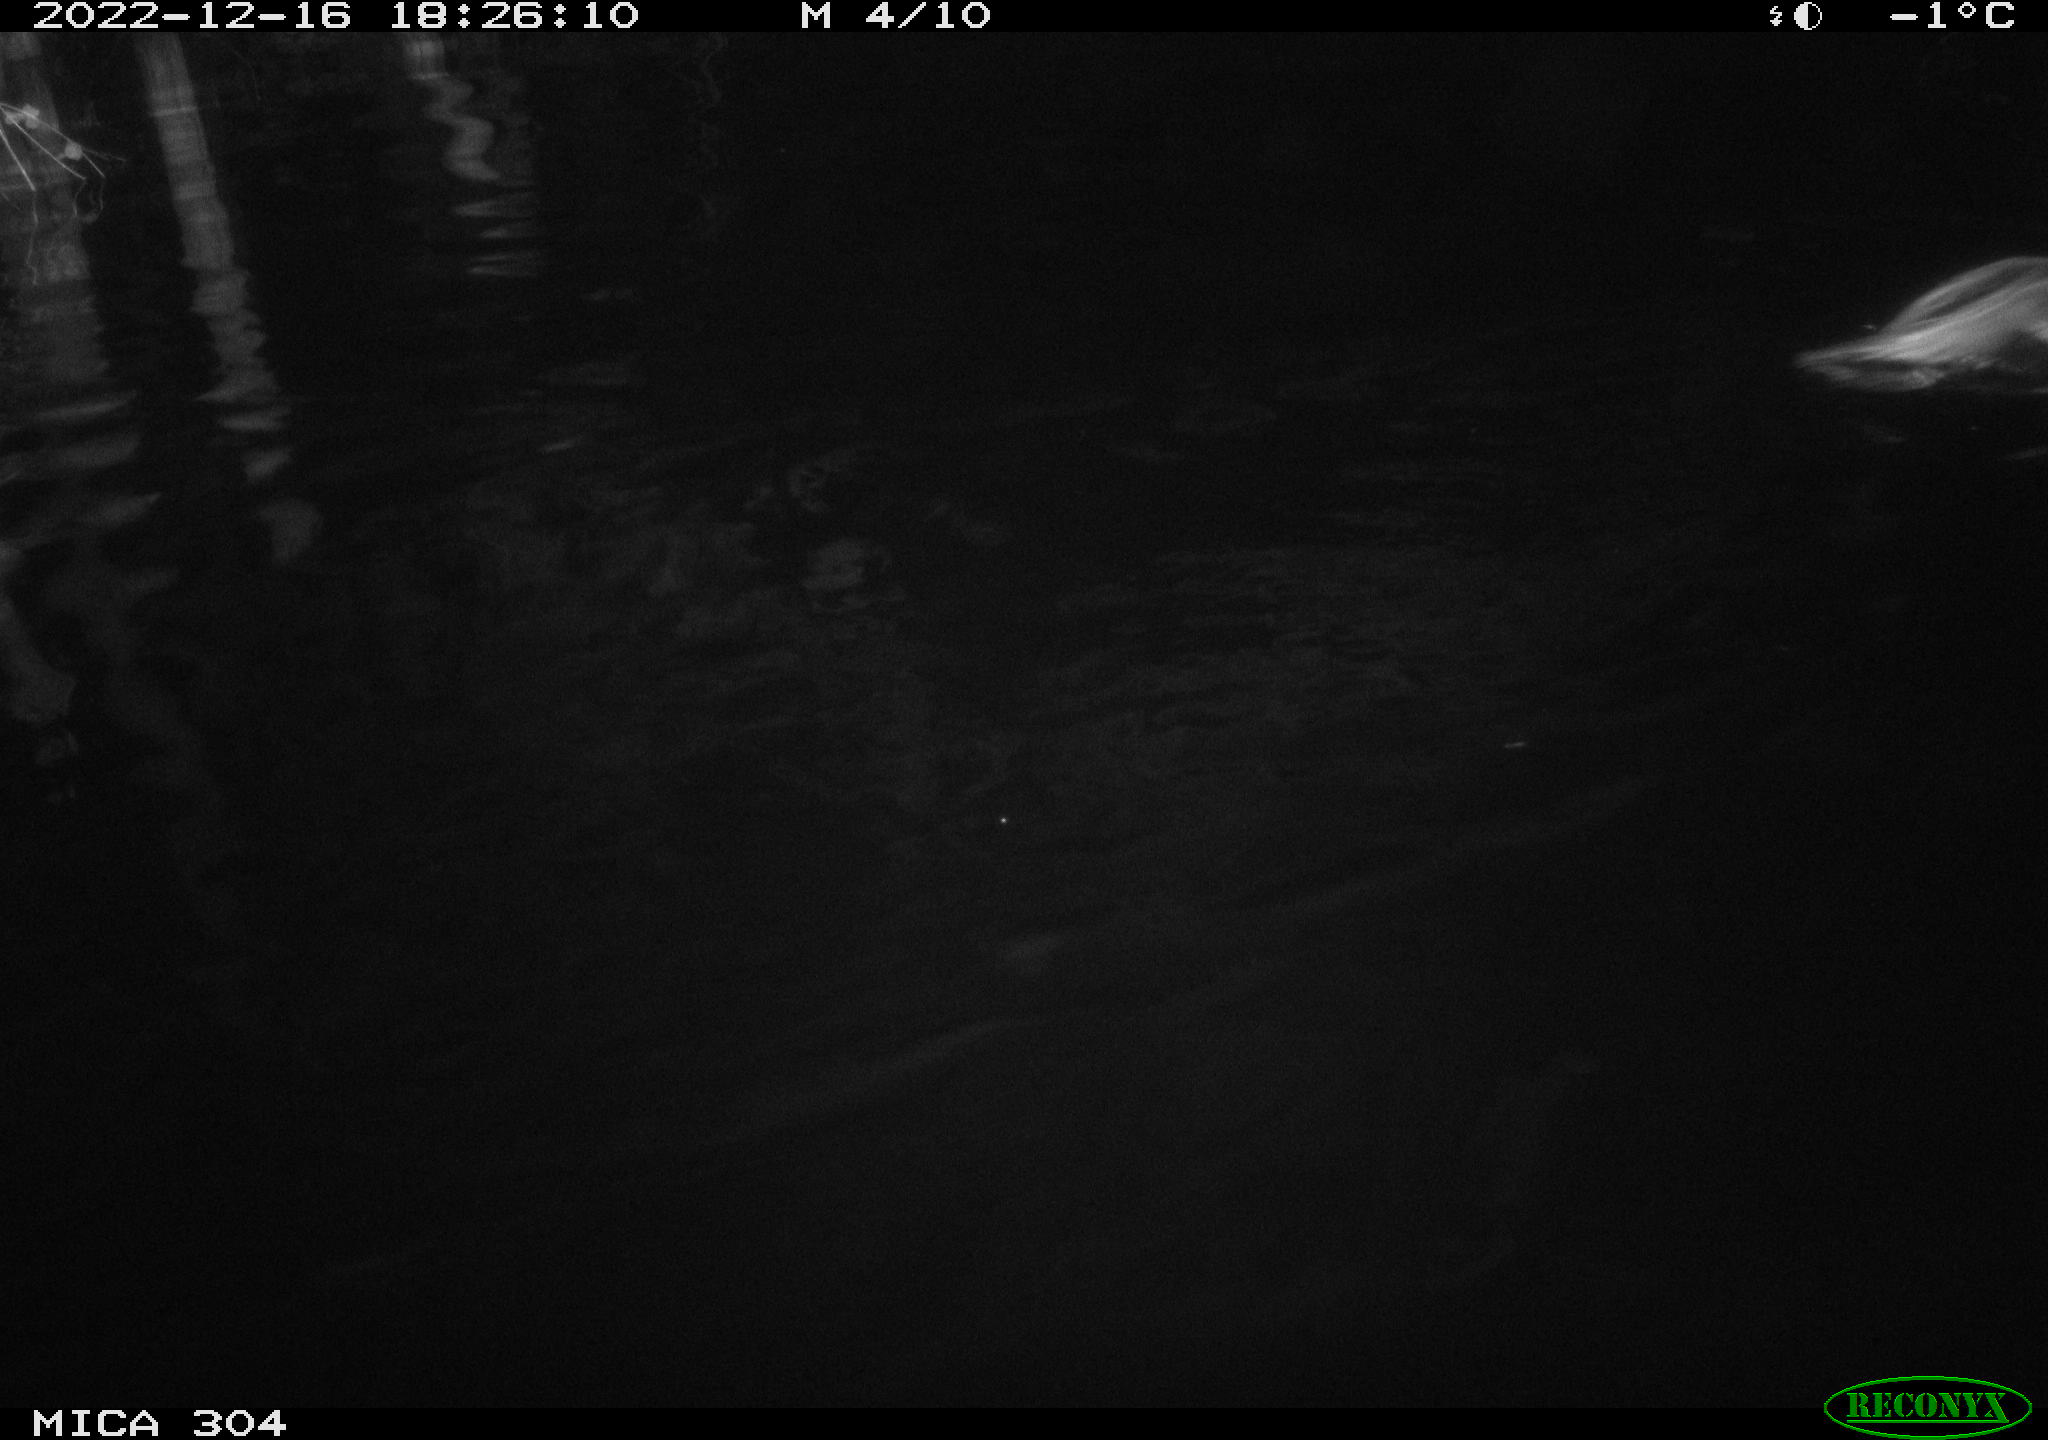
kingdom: Animalia
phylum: Chordata
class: Aves
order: Gruiformes
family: Rallidae
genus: Gallinula
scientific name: Gallinula chloropus
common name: Common moorhen
